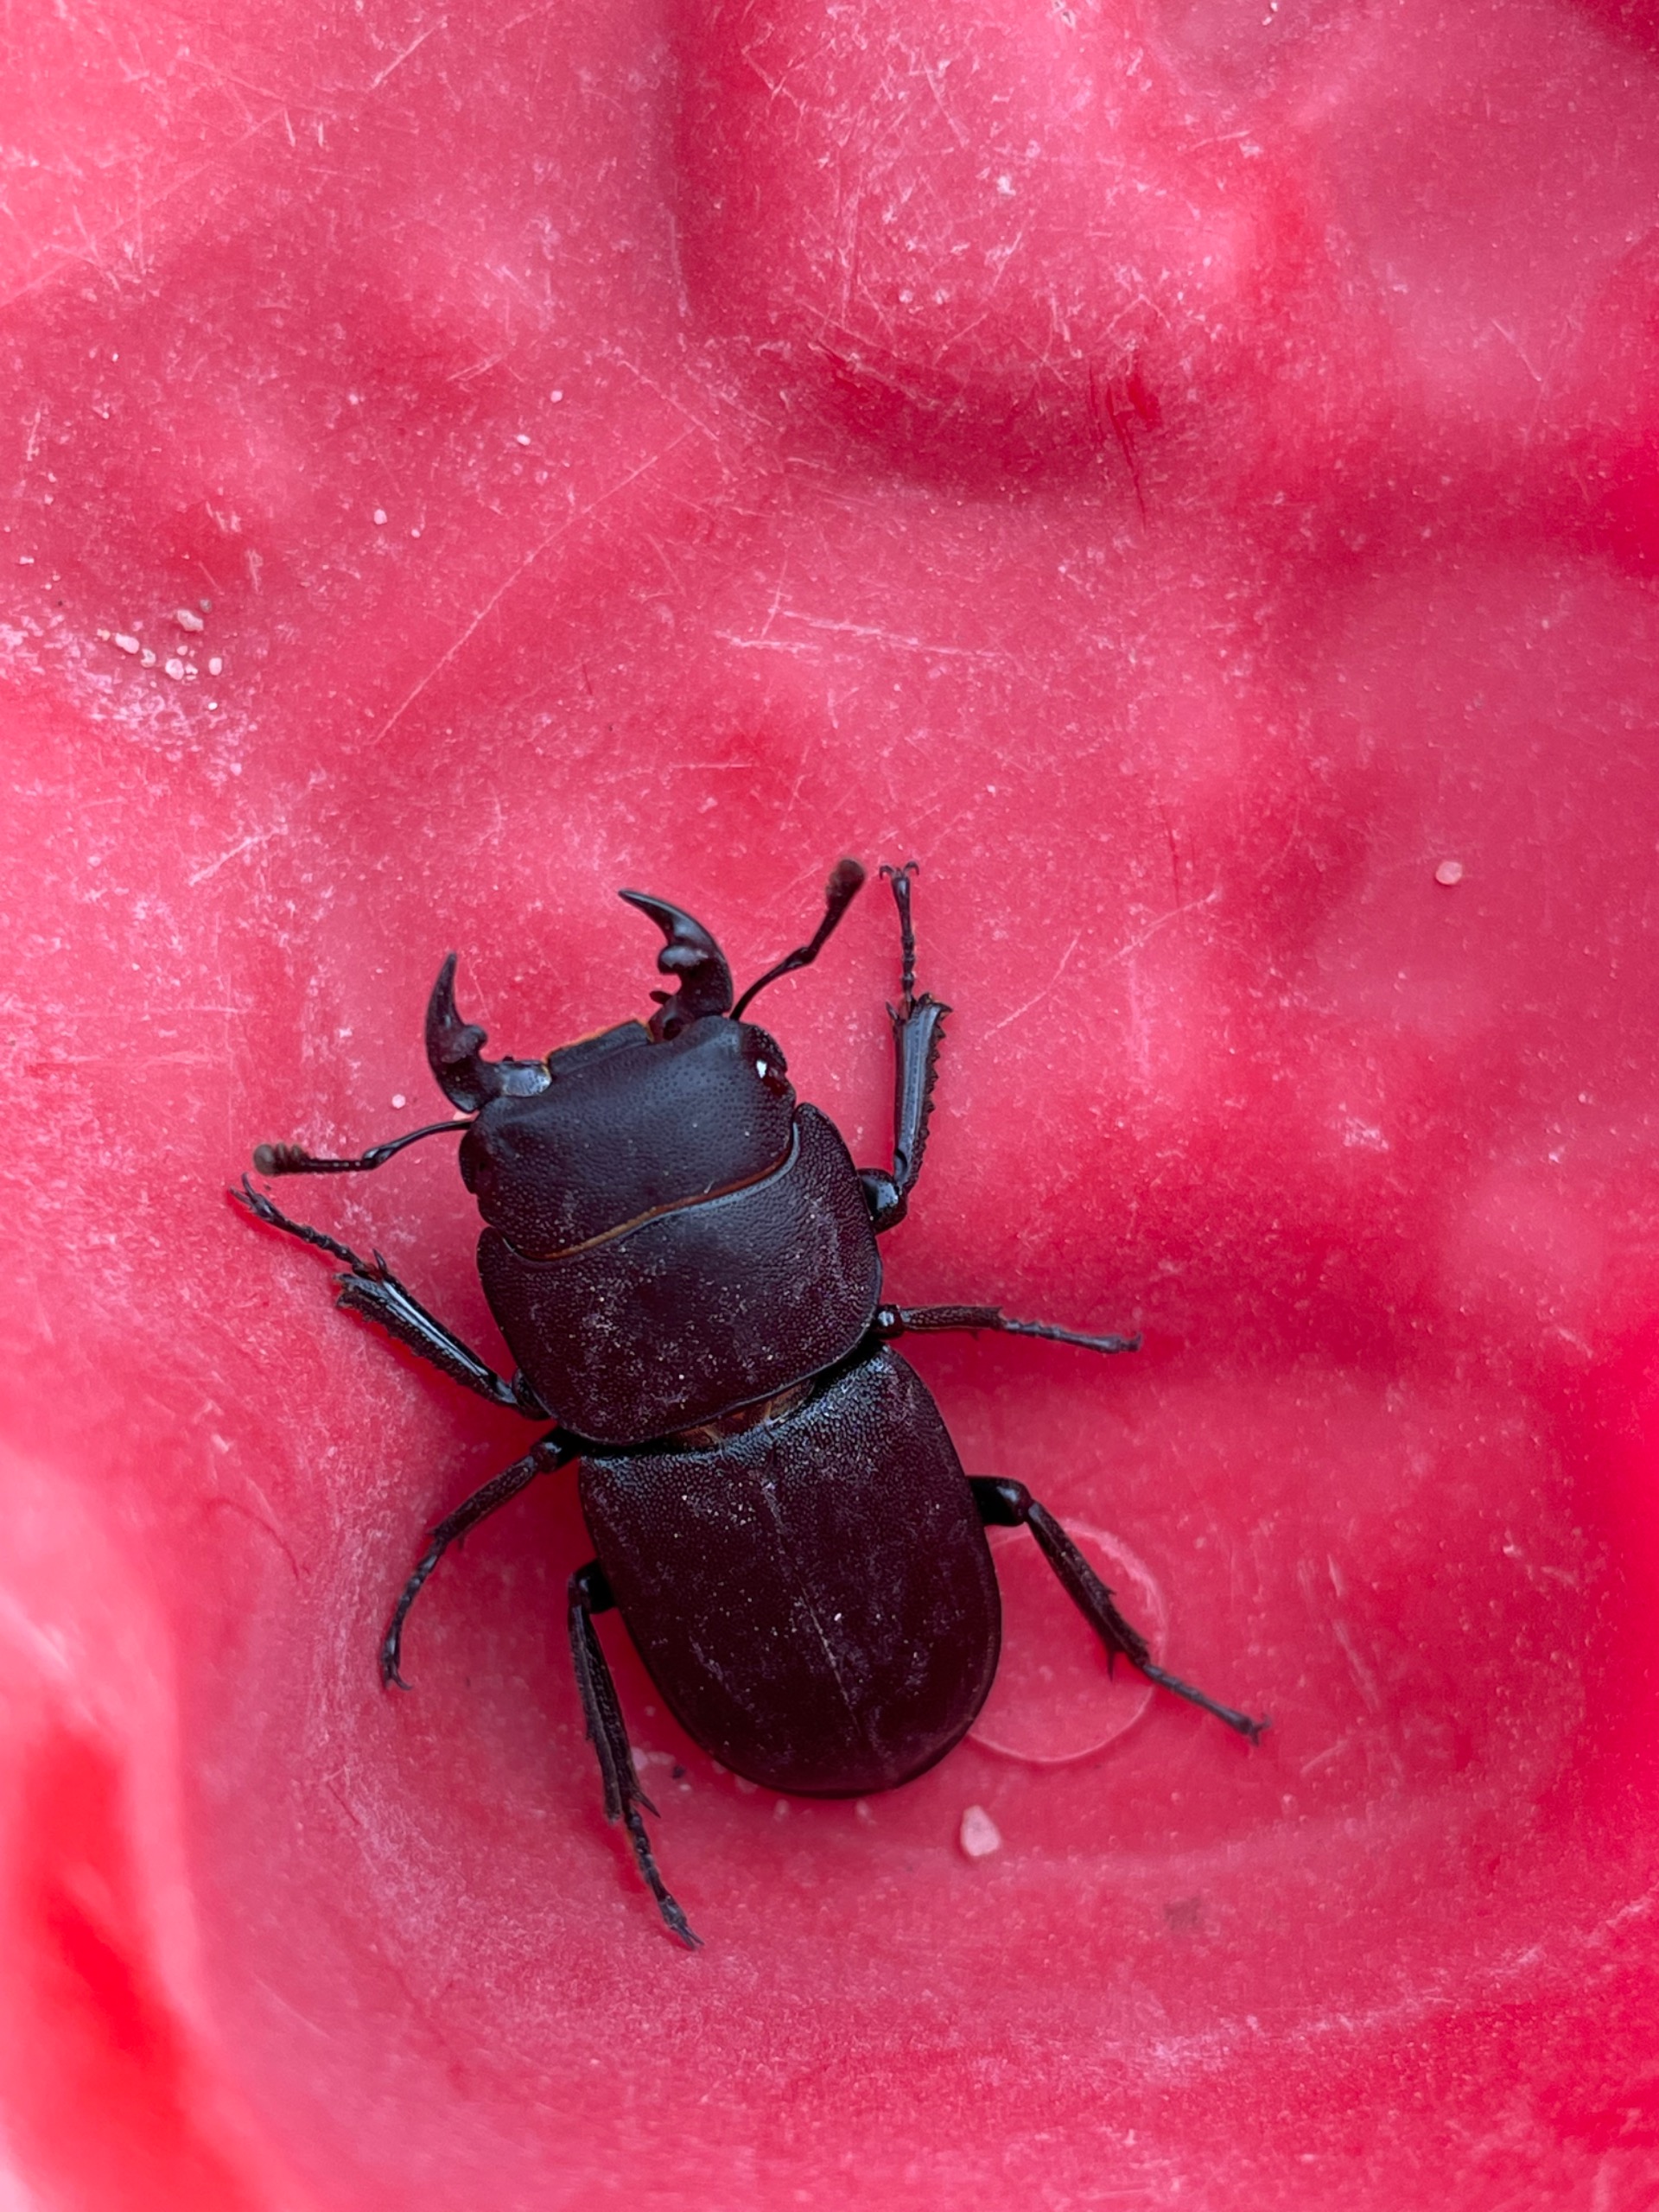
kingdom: Animalia
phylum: Arthropoda
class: Insecta
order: Coleoptera
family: Lucanidae
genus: Dorcus
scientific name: Dorcus parallelipipedus
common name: Bøghjort
